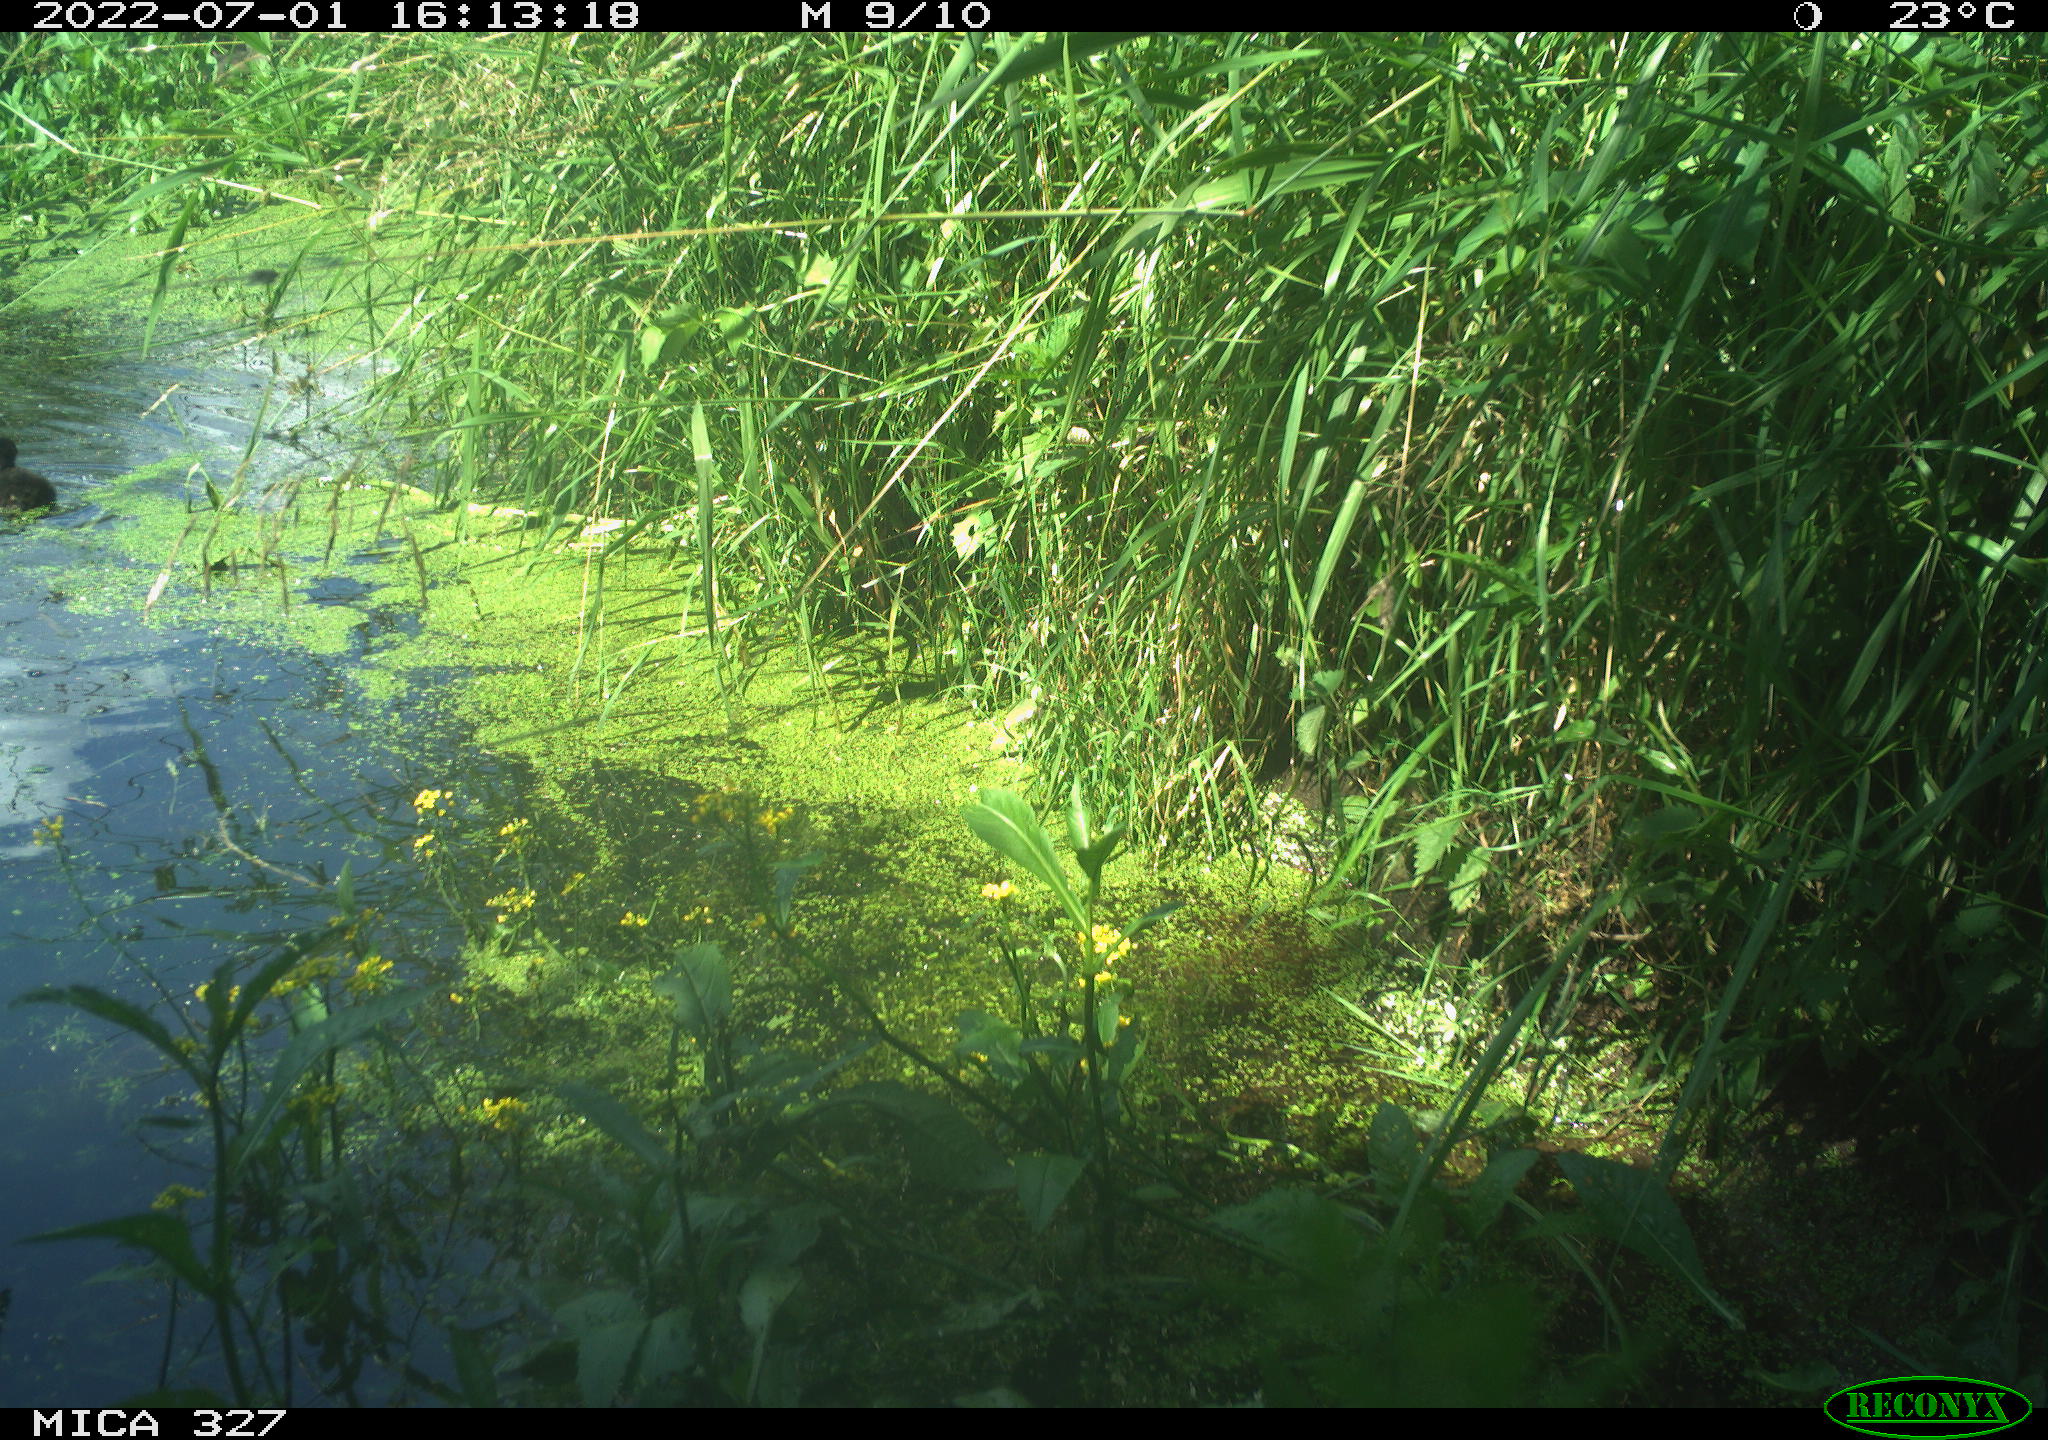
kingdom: Animalia
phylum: Chordata
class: Aves
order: Gruiformes
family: Rallidae
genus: Gallinula
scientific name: Gallinula chloropus
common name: Common moorhen
